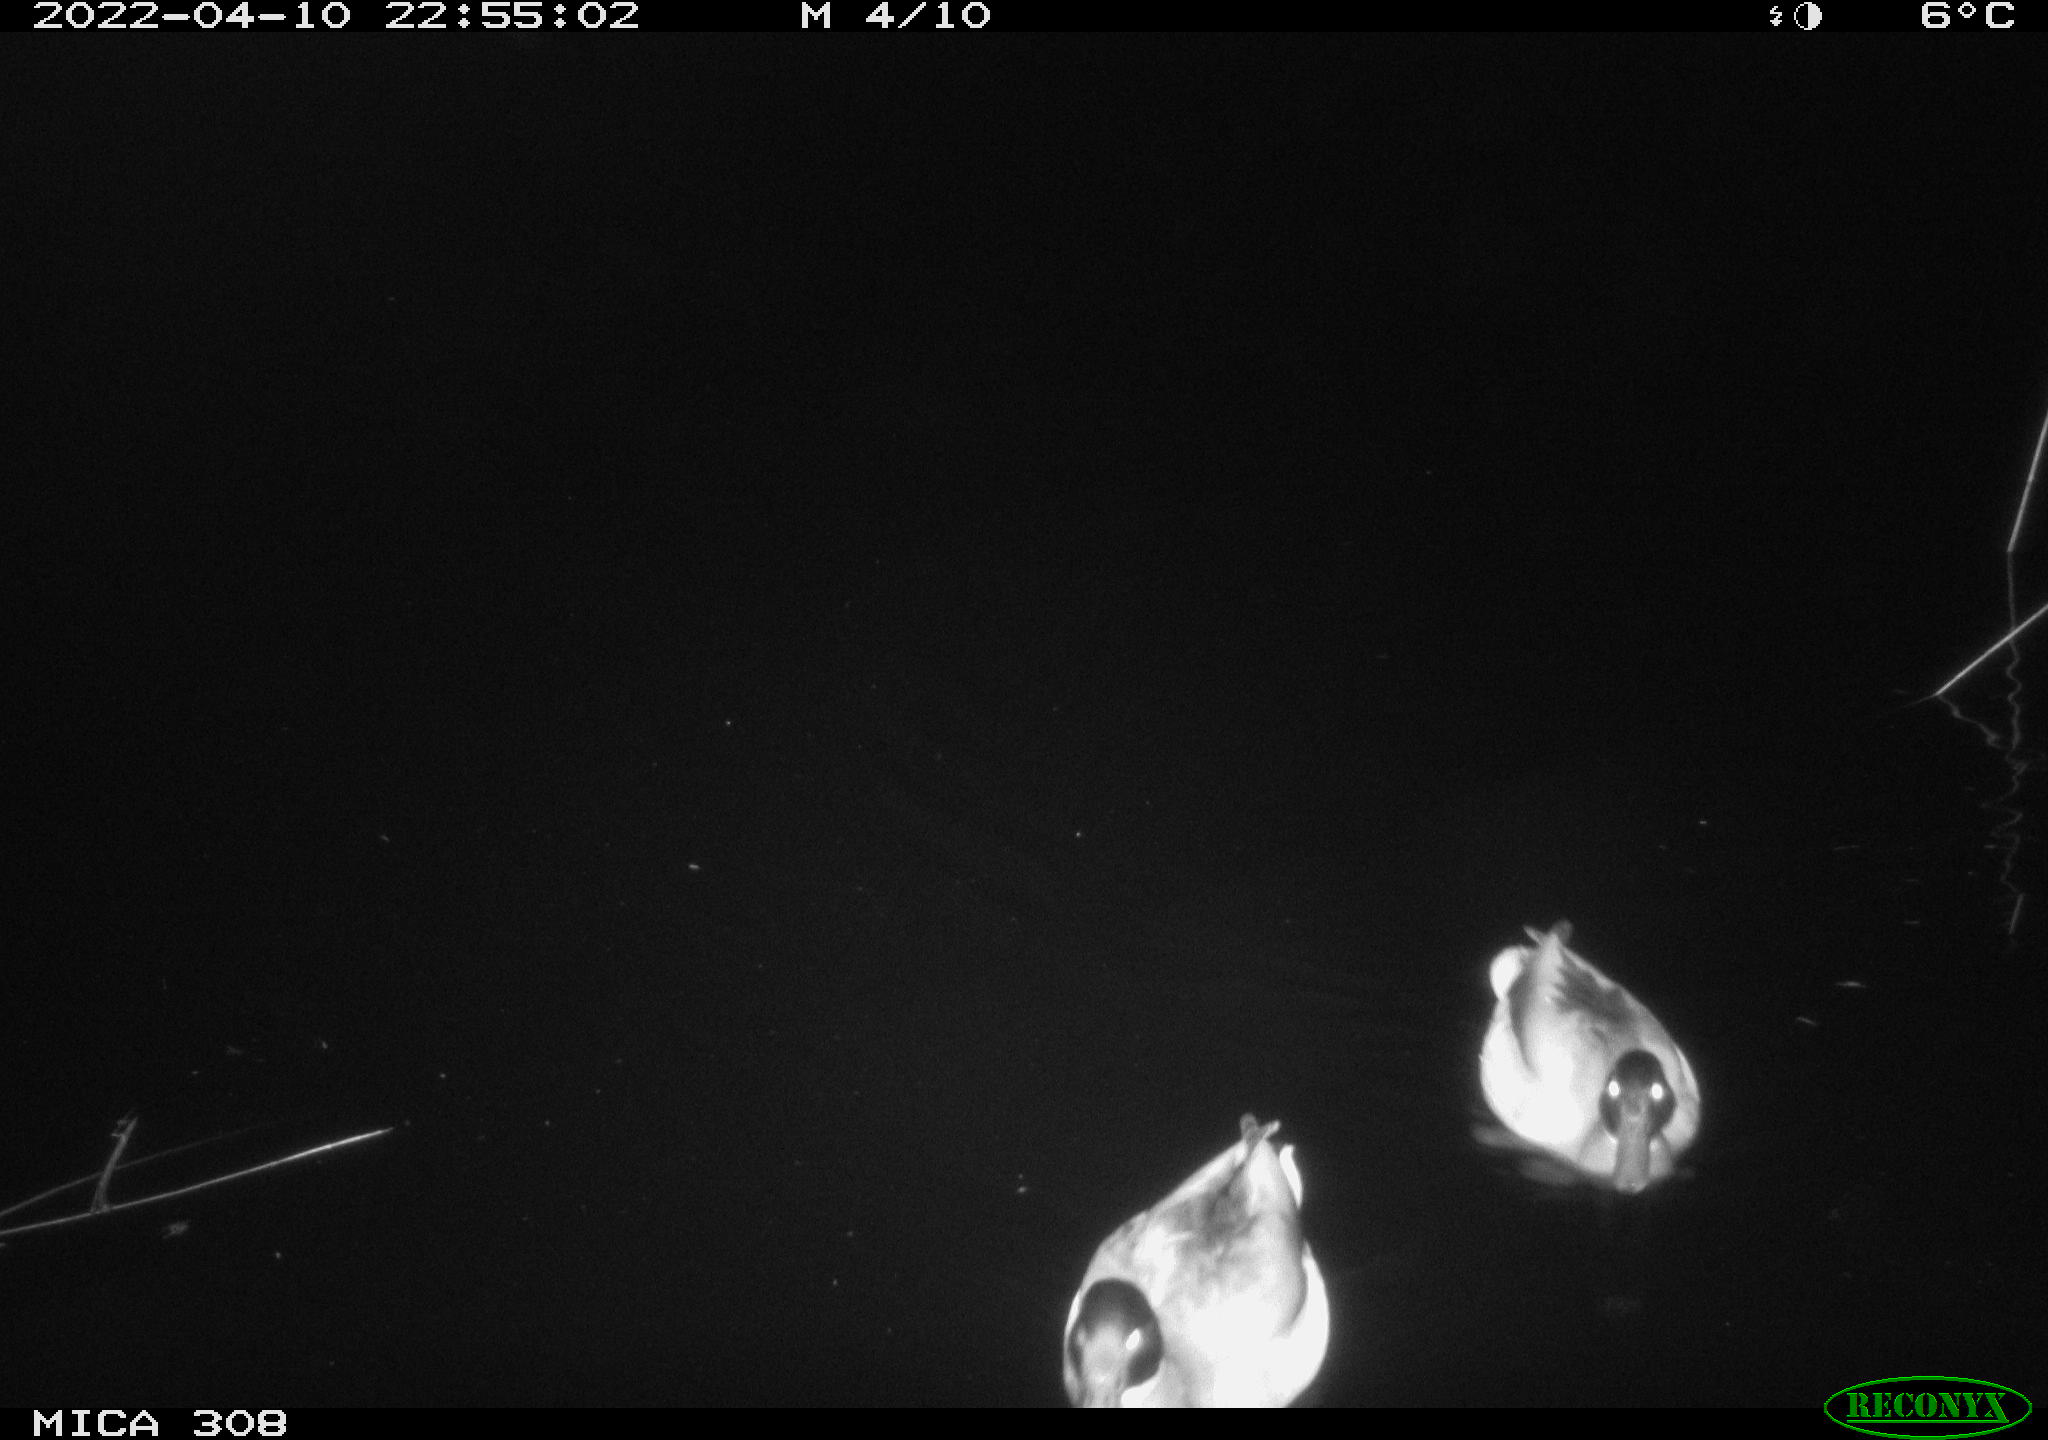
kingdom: Animalia
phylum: Chordata
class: Aves
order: Anseriformes
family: Anatidae
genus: Anas
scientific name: Anas platyrhynchos
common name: Mallard
